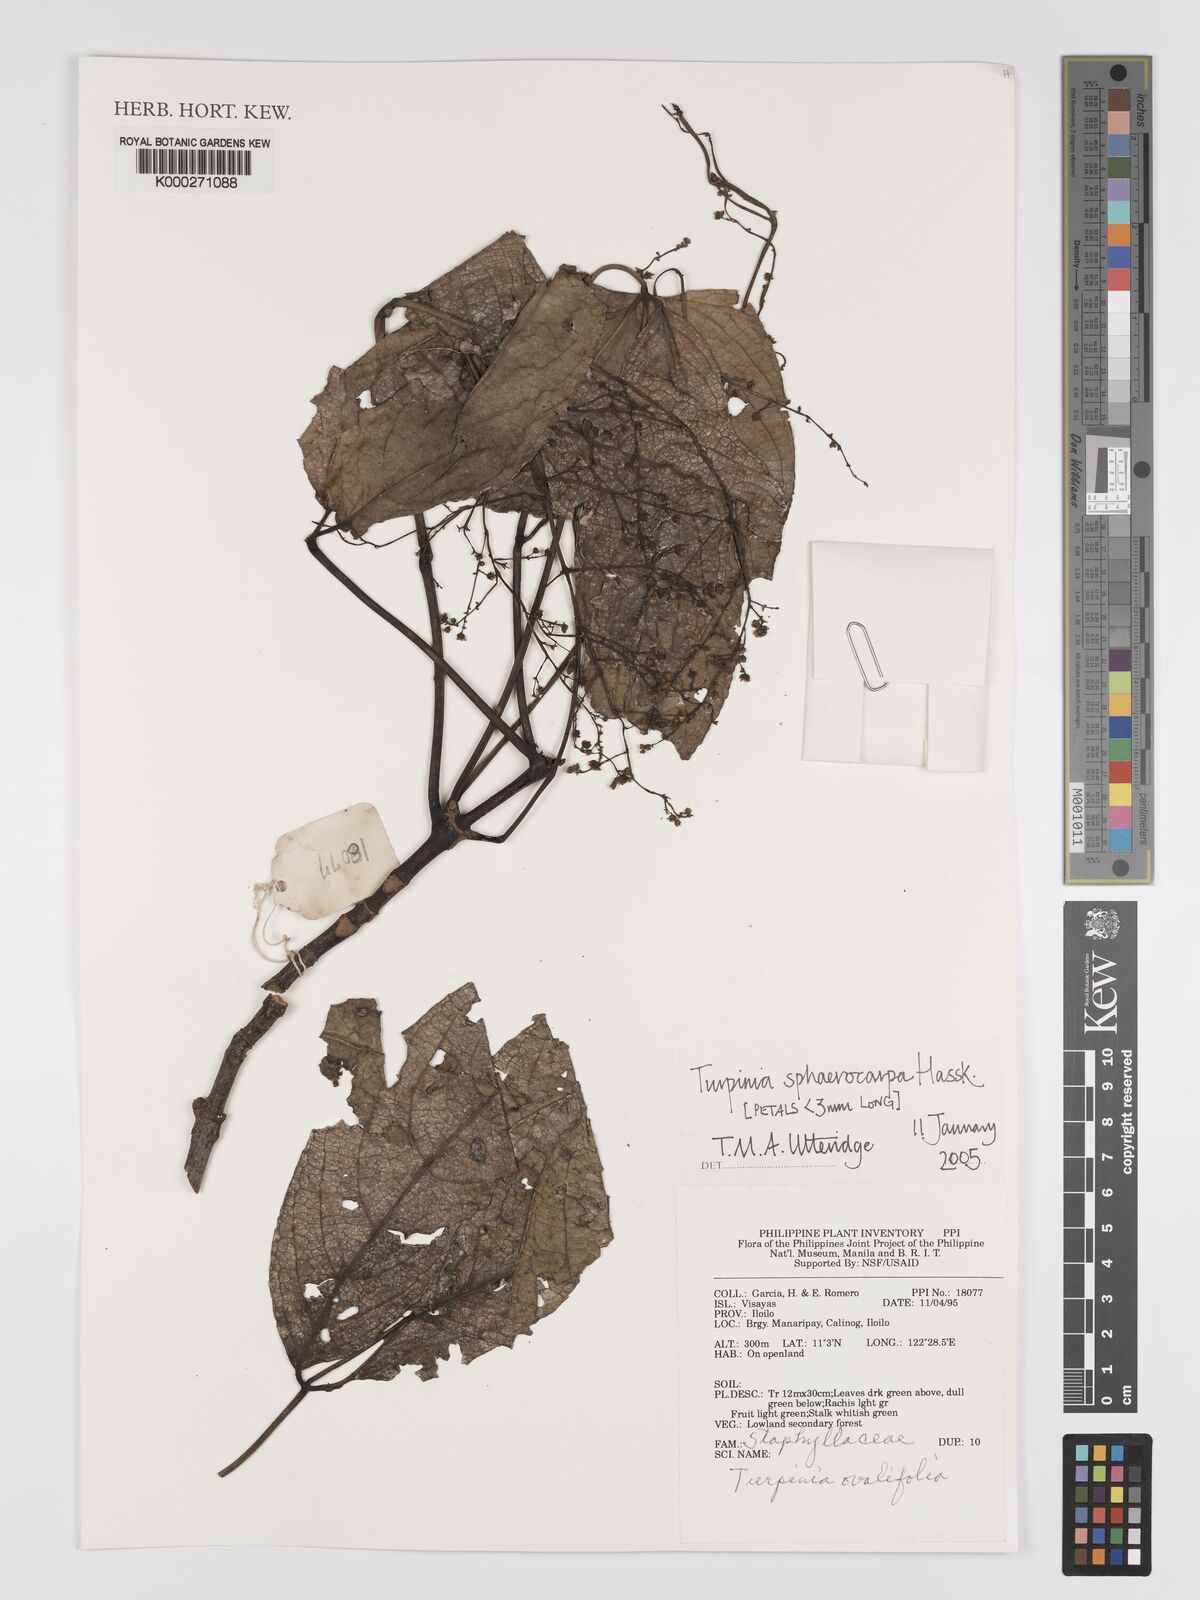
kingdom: Plantae
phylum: Tracheophyta
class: Magnoliopsida
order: Crossosomatales
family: Staphyleaceae
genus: Dalrympelea
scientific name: Dalrympelea sphaerocarpa
